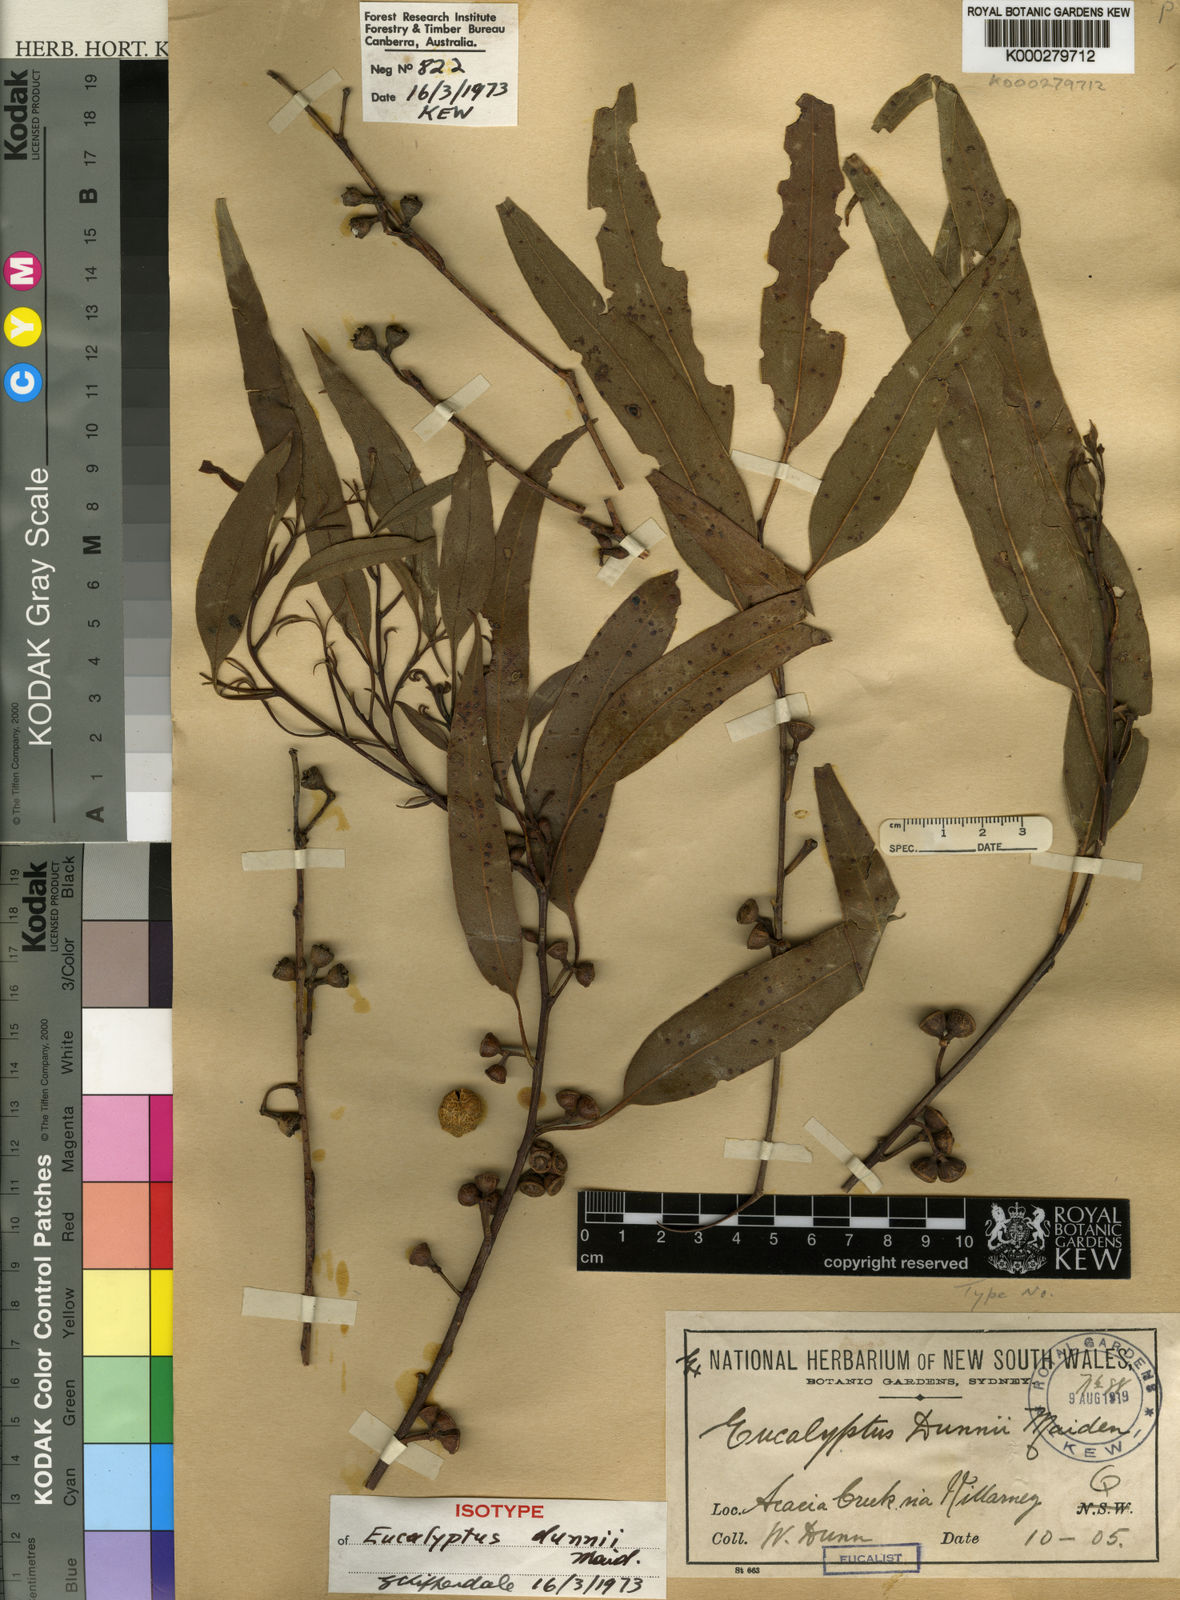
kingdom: Plantae
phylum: Tracheophyta
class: Magnoliopsida
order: Myrtales
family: Myrtaceae
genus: Eucalyptus
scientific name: Eucalyptus dunnii
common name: Dunn's white gum
